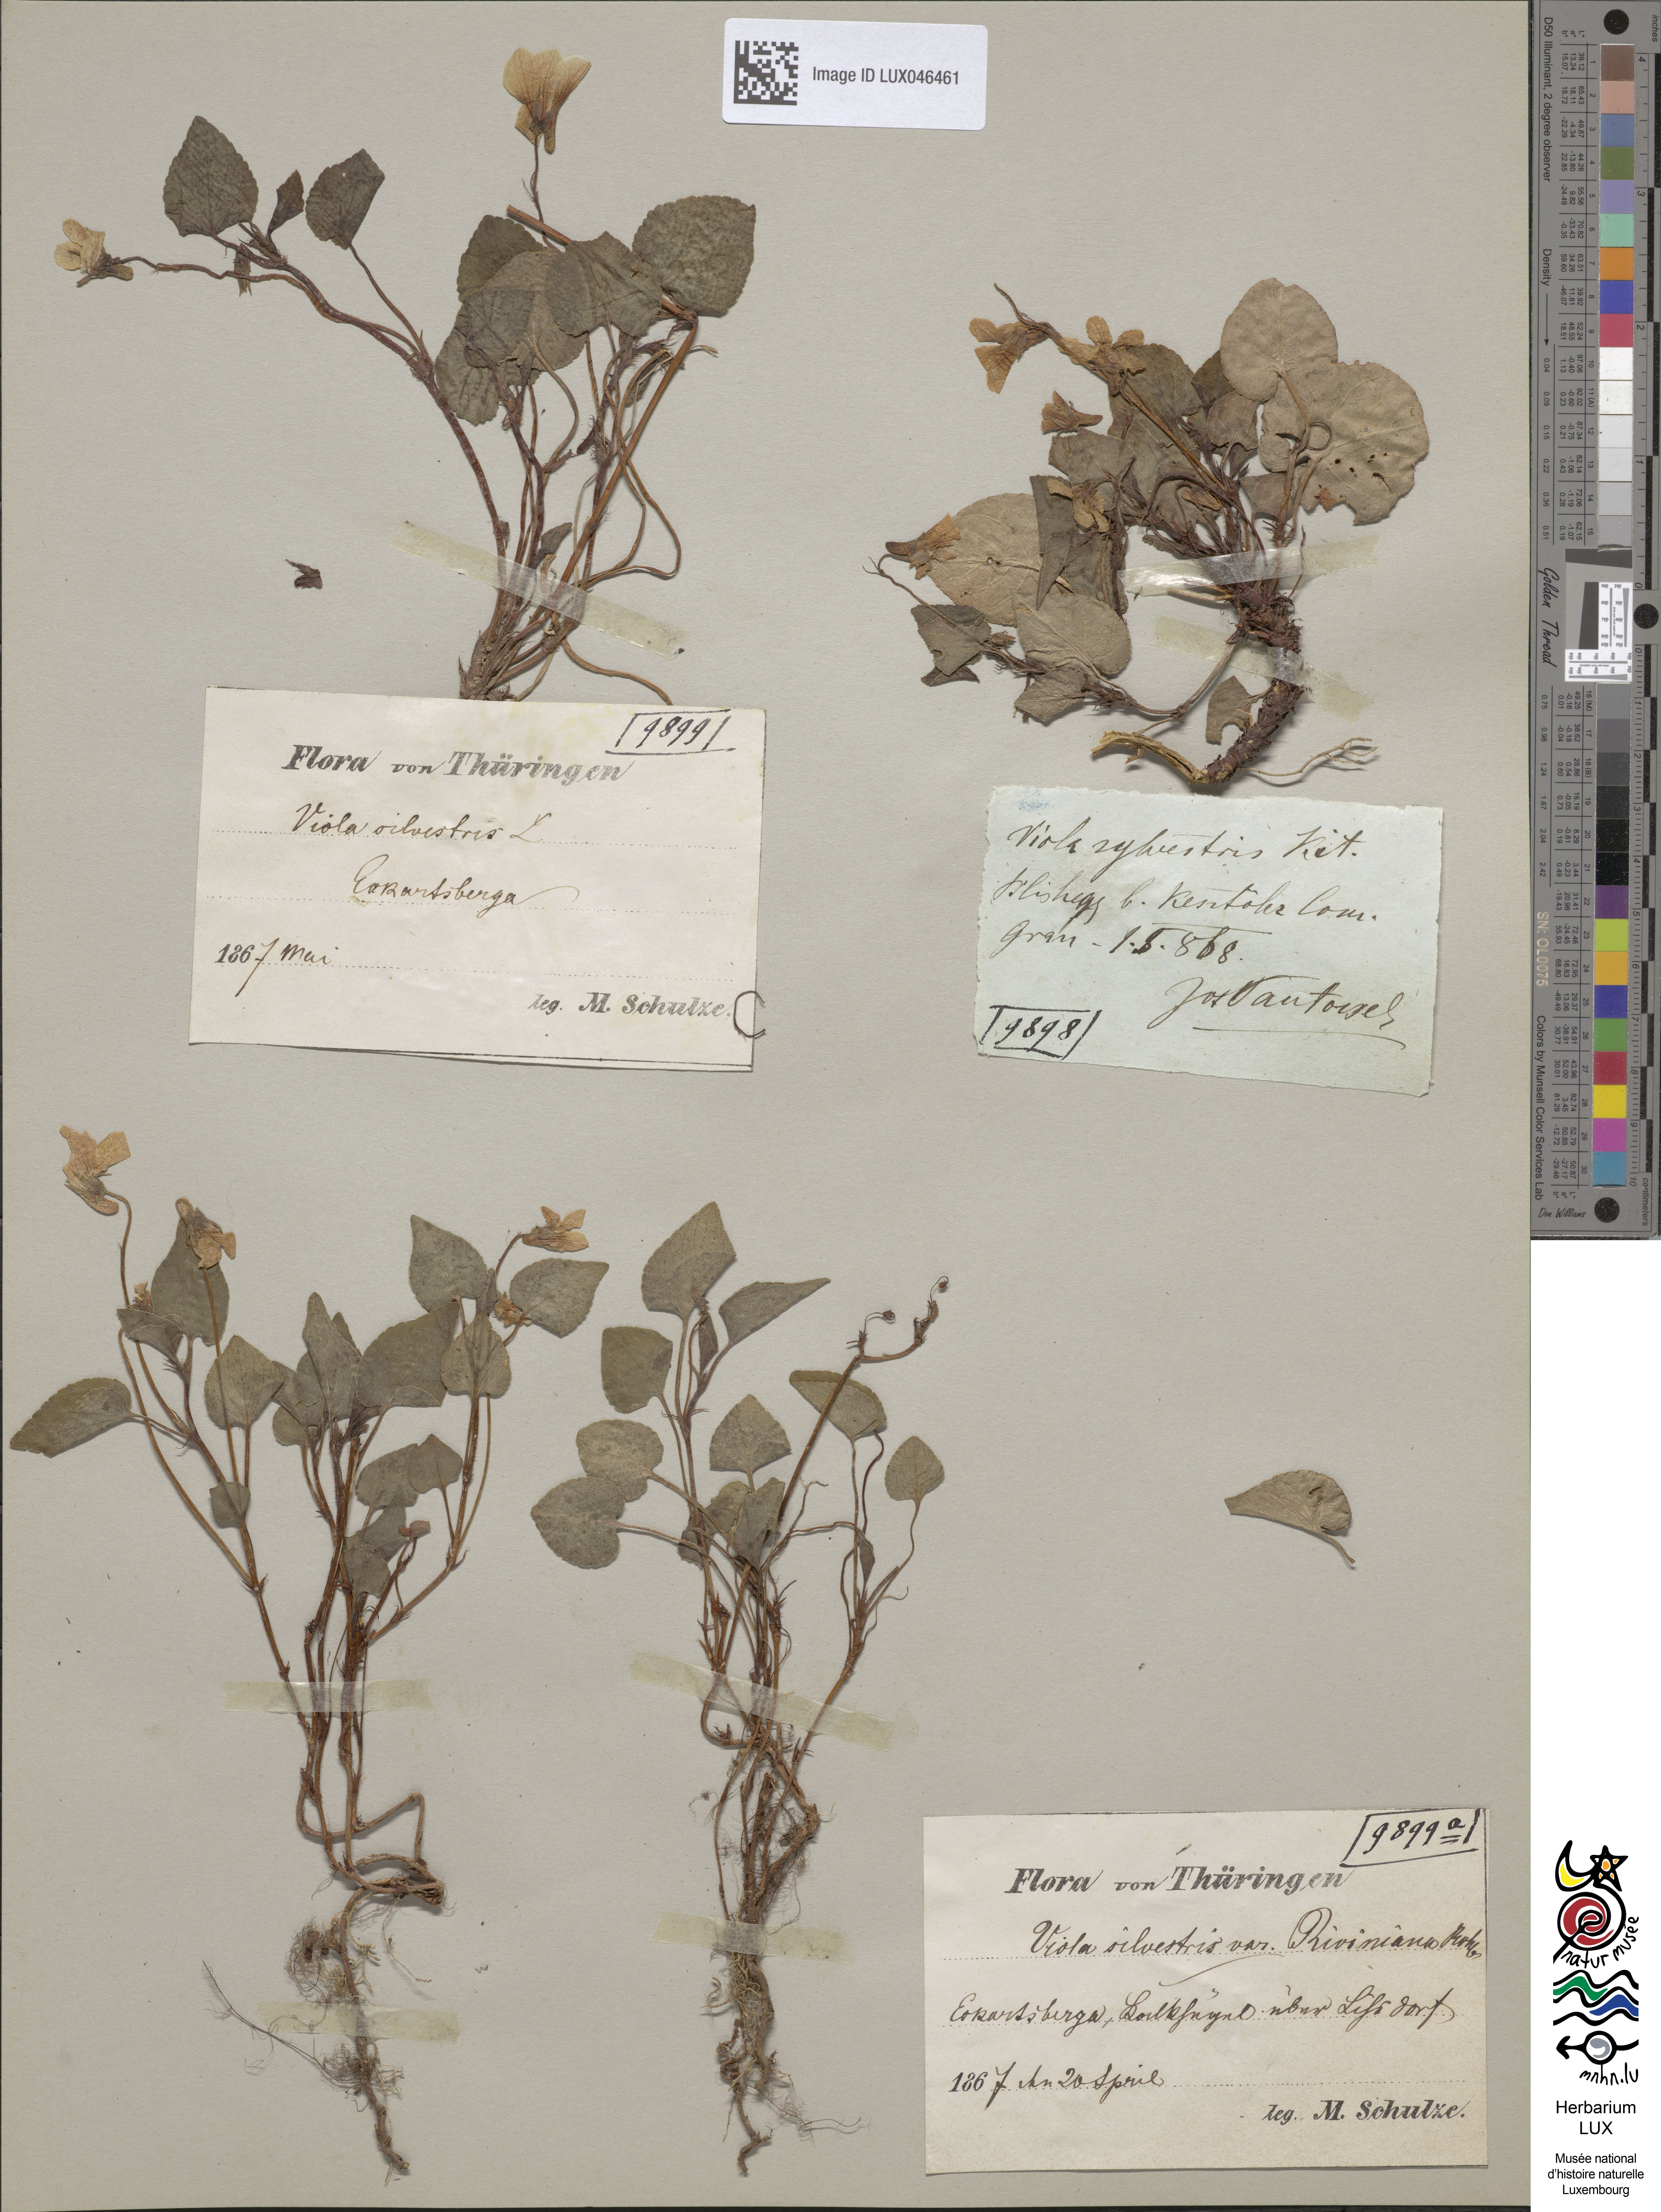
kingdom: Plantae
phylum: Tracheophyta
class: Magnoliopsida
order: Malpighiales
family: Violaceae
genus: Viola
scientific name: Viola reichenbachiana
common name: Early dog-violet
